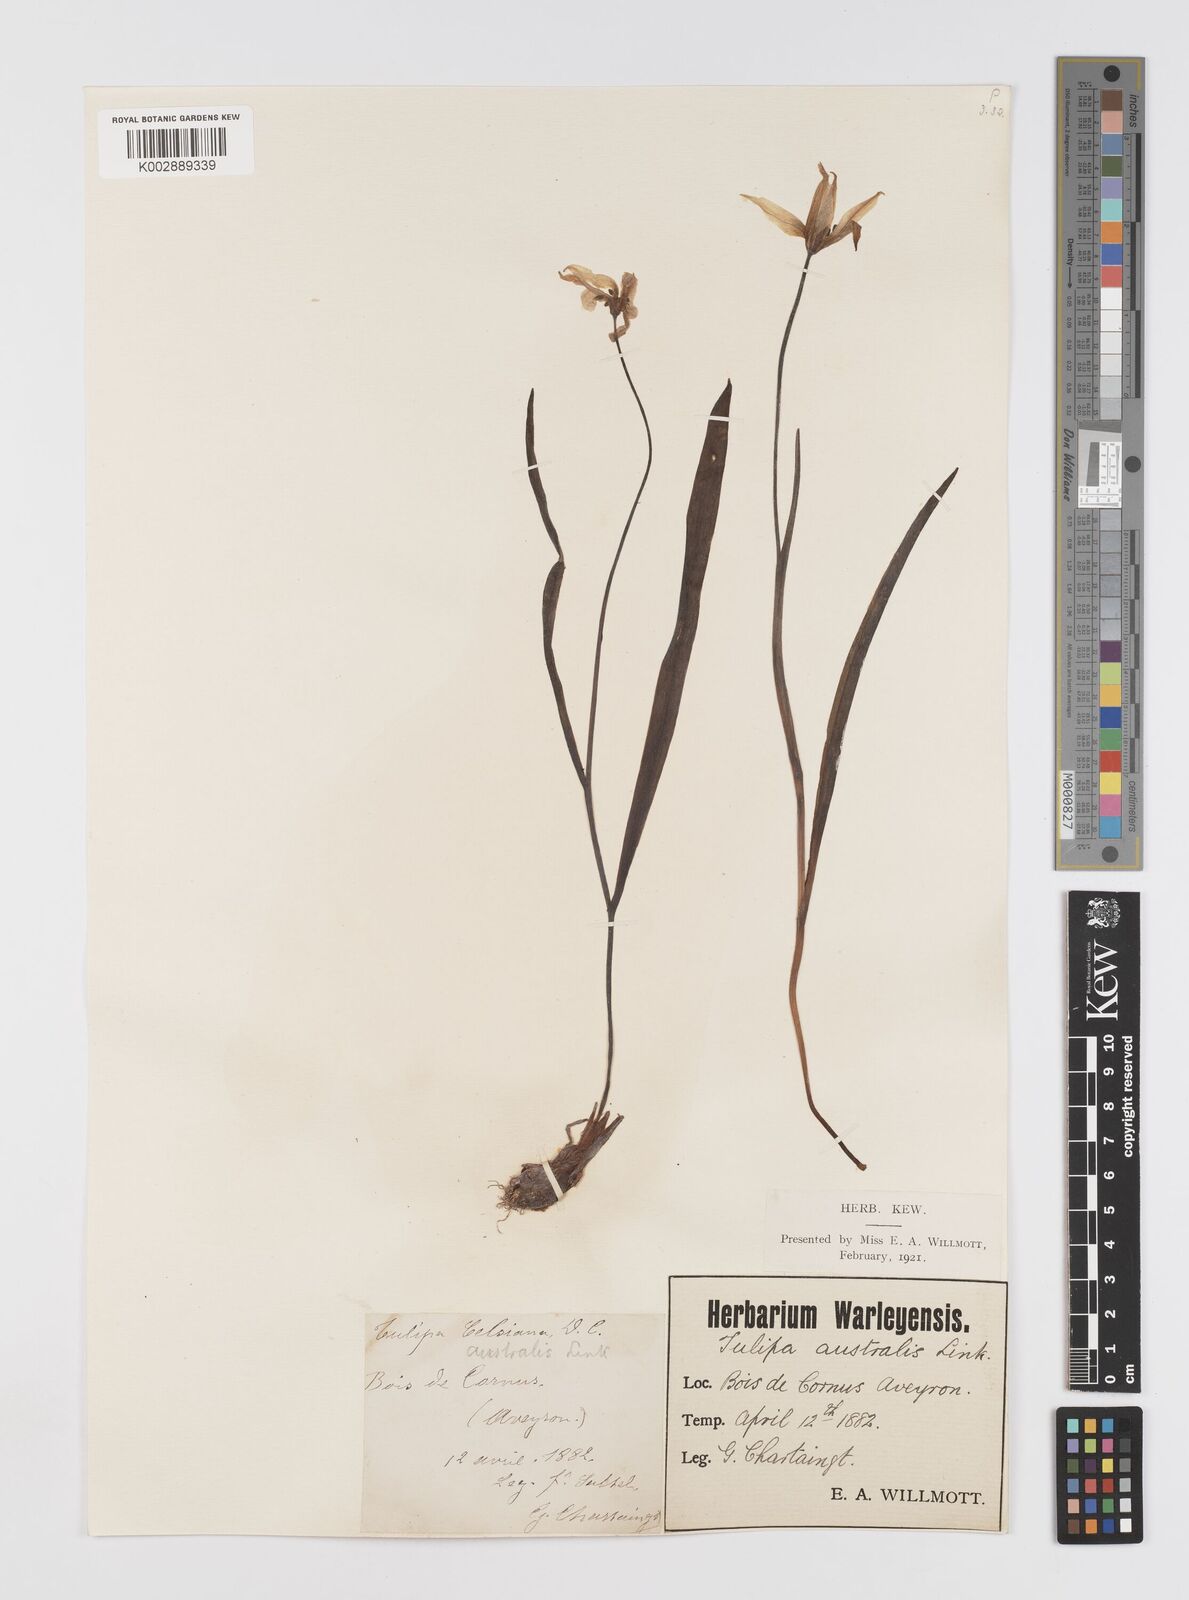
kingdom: Plantae
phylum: Tracheophyta
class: Liliopsida
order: Liliales
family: Liliaceae
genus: Tulipa
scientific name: Tulipa sylvestris
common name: Wild tulip
